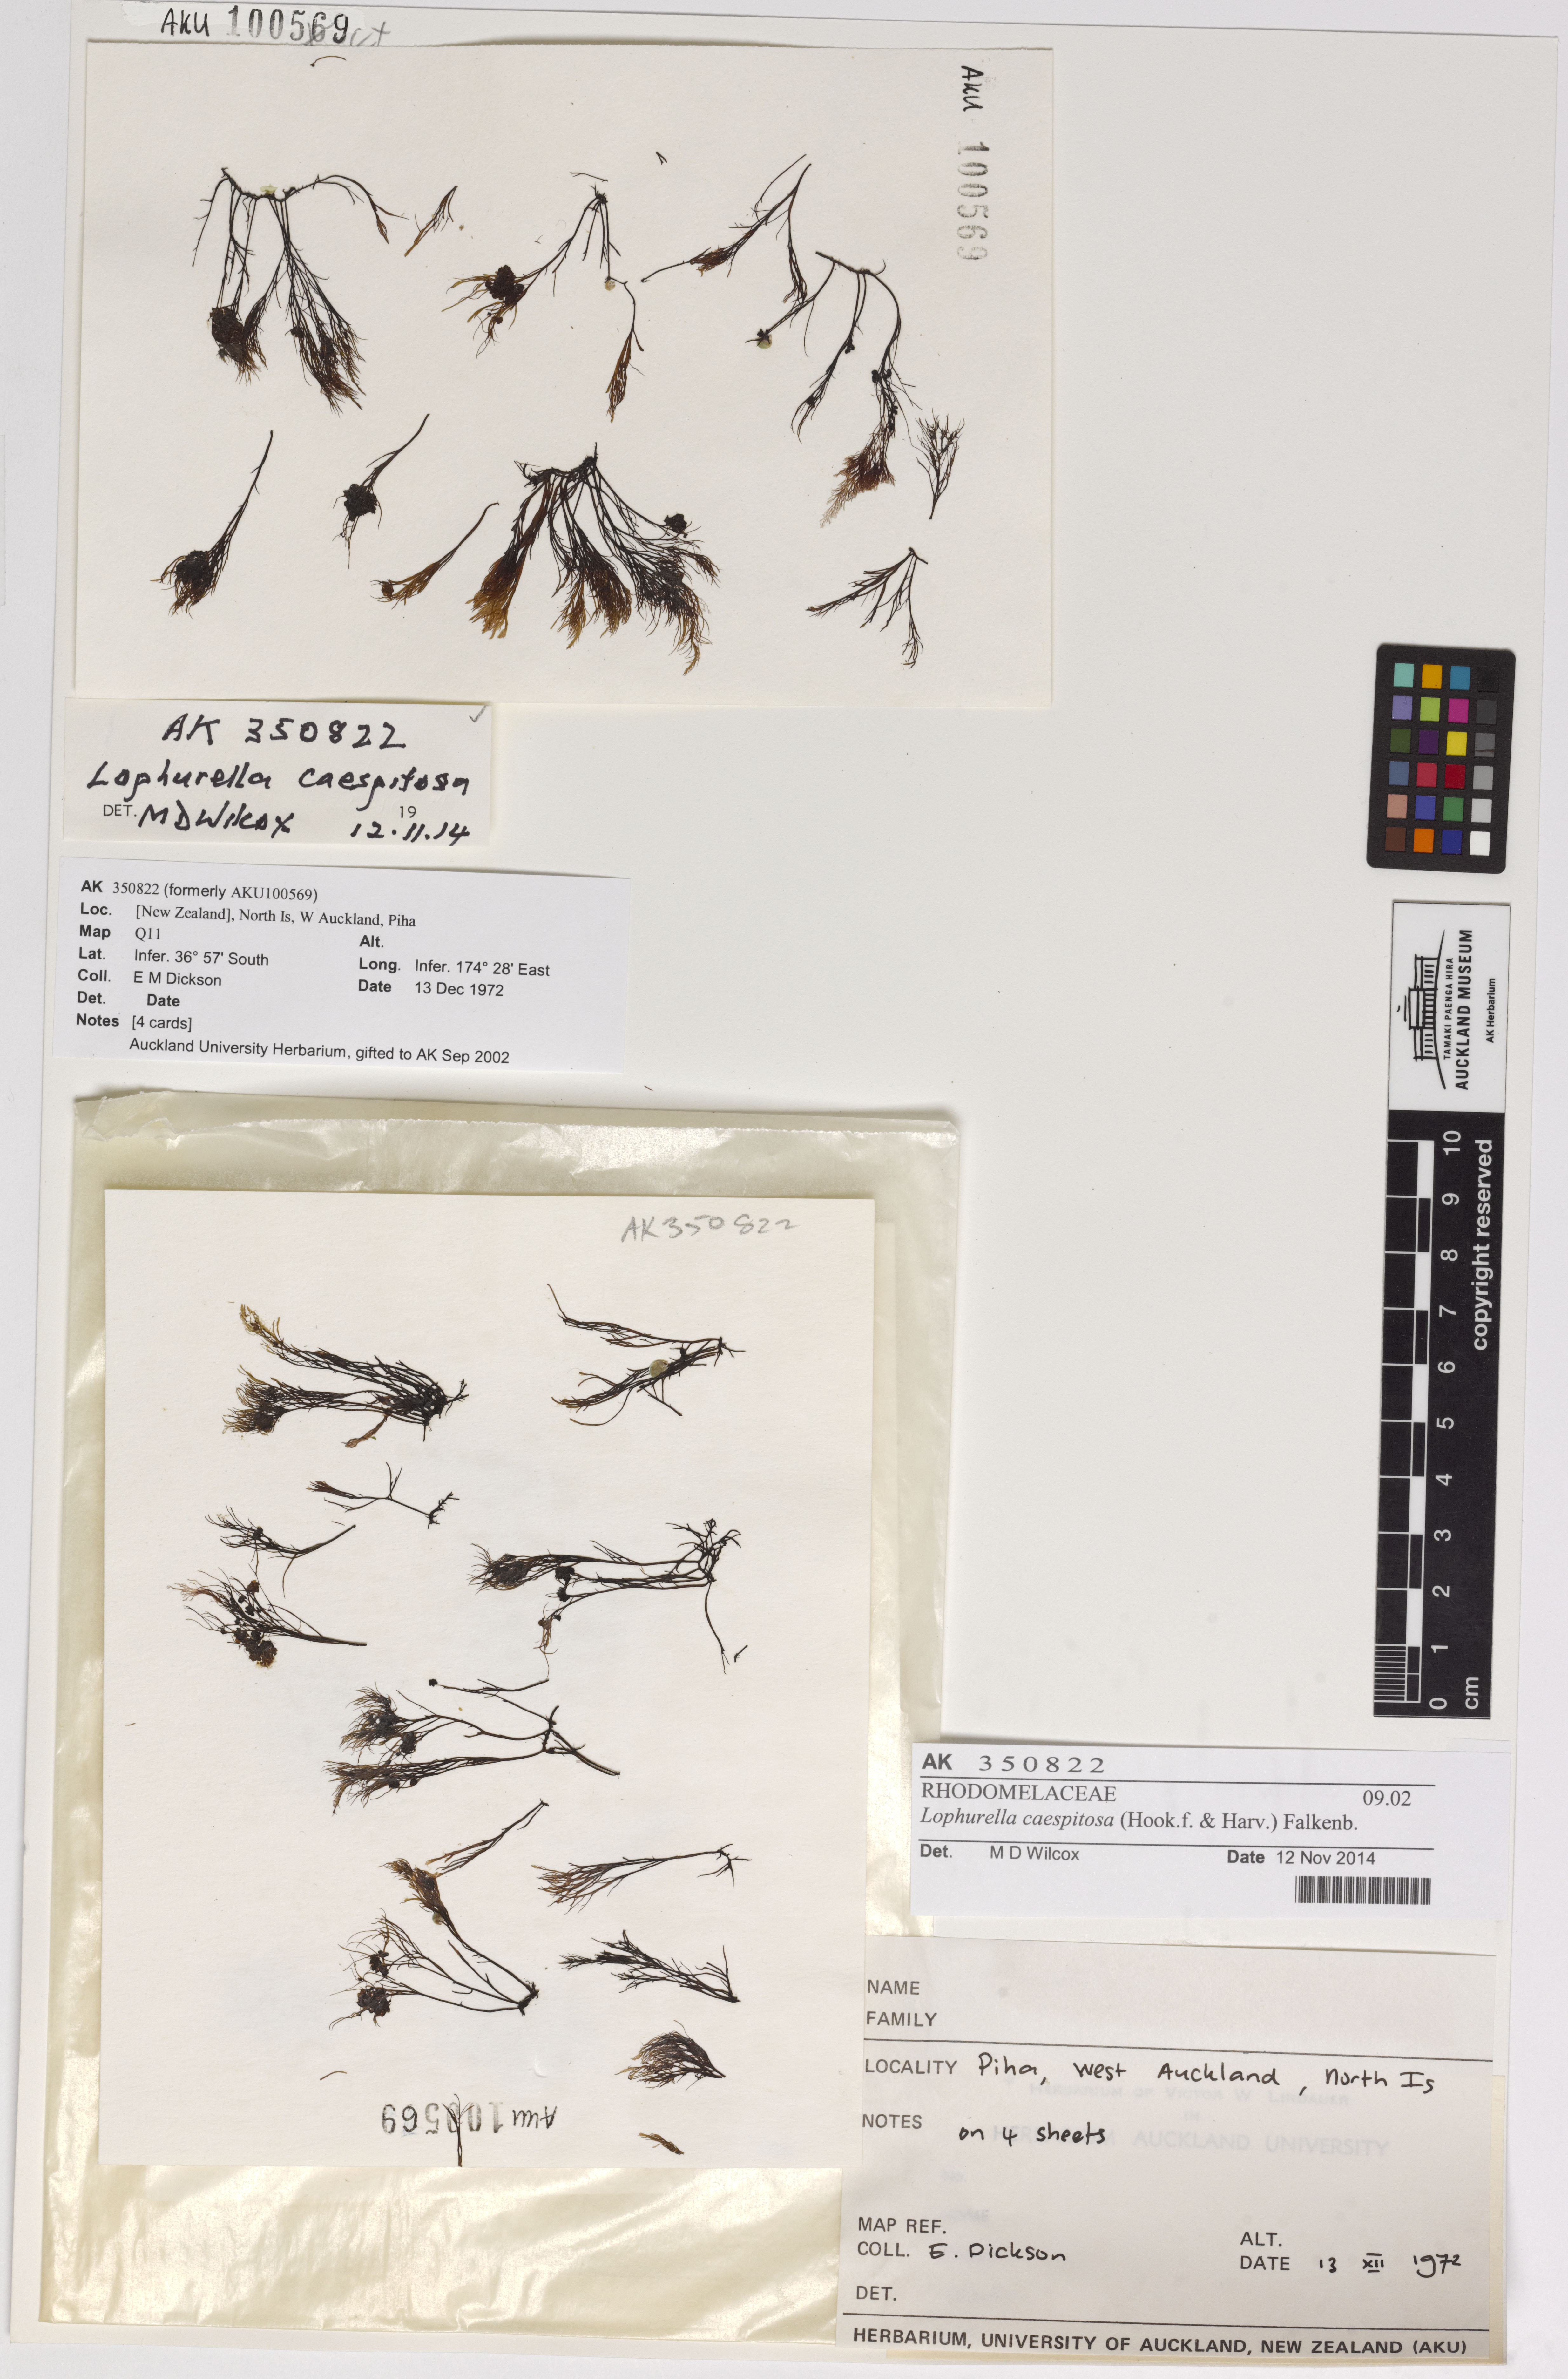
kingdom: Plantae
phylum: Rhodophyta
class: Florideophyceae
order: Ceramiales
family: Rhodomelaceae
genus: Lophurella
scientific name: Lophurella caespitosa
